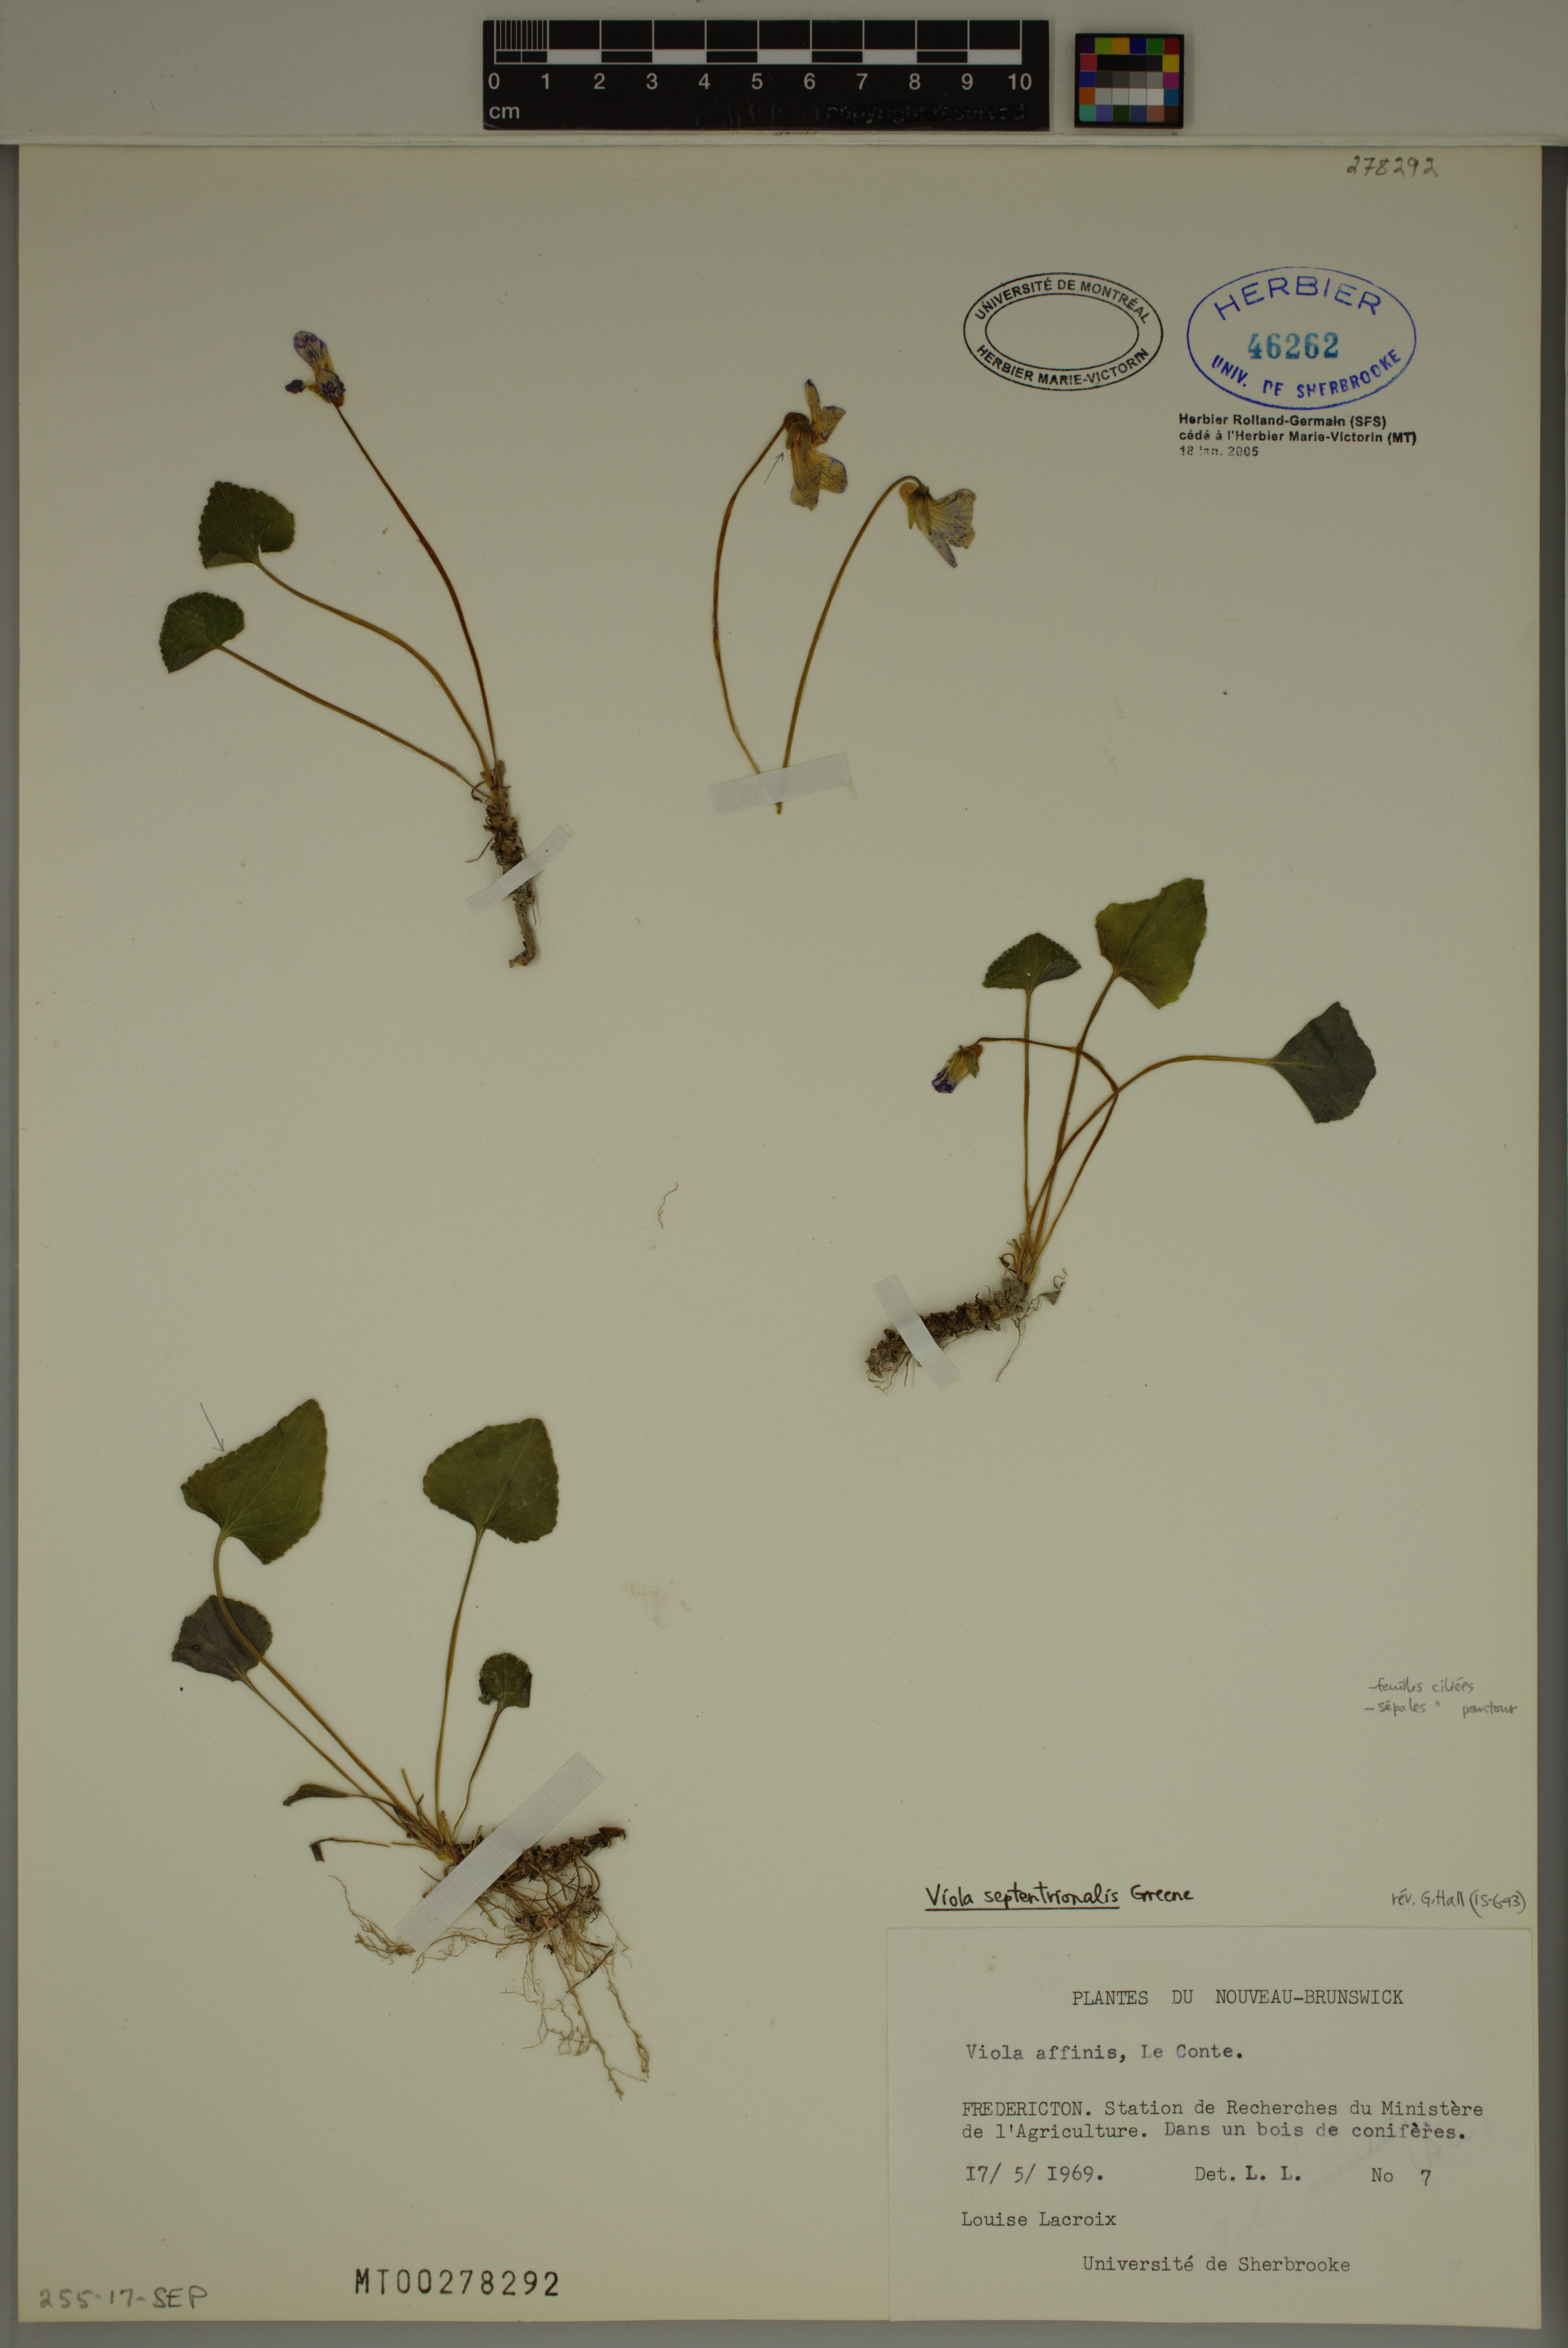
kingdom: Plantae
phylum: Tracheophyta
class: Magnoliopsida
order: Malpighiales
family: Violaceae
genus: Viola
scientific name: Viola septentrionalis
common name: Northern woodland violet
